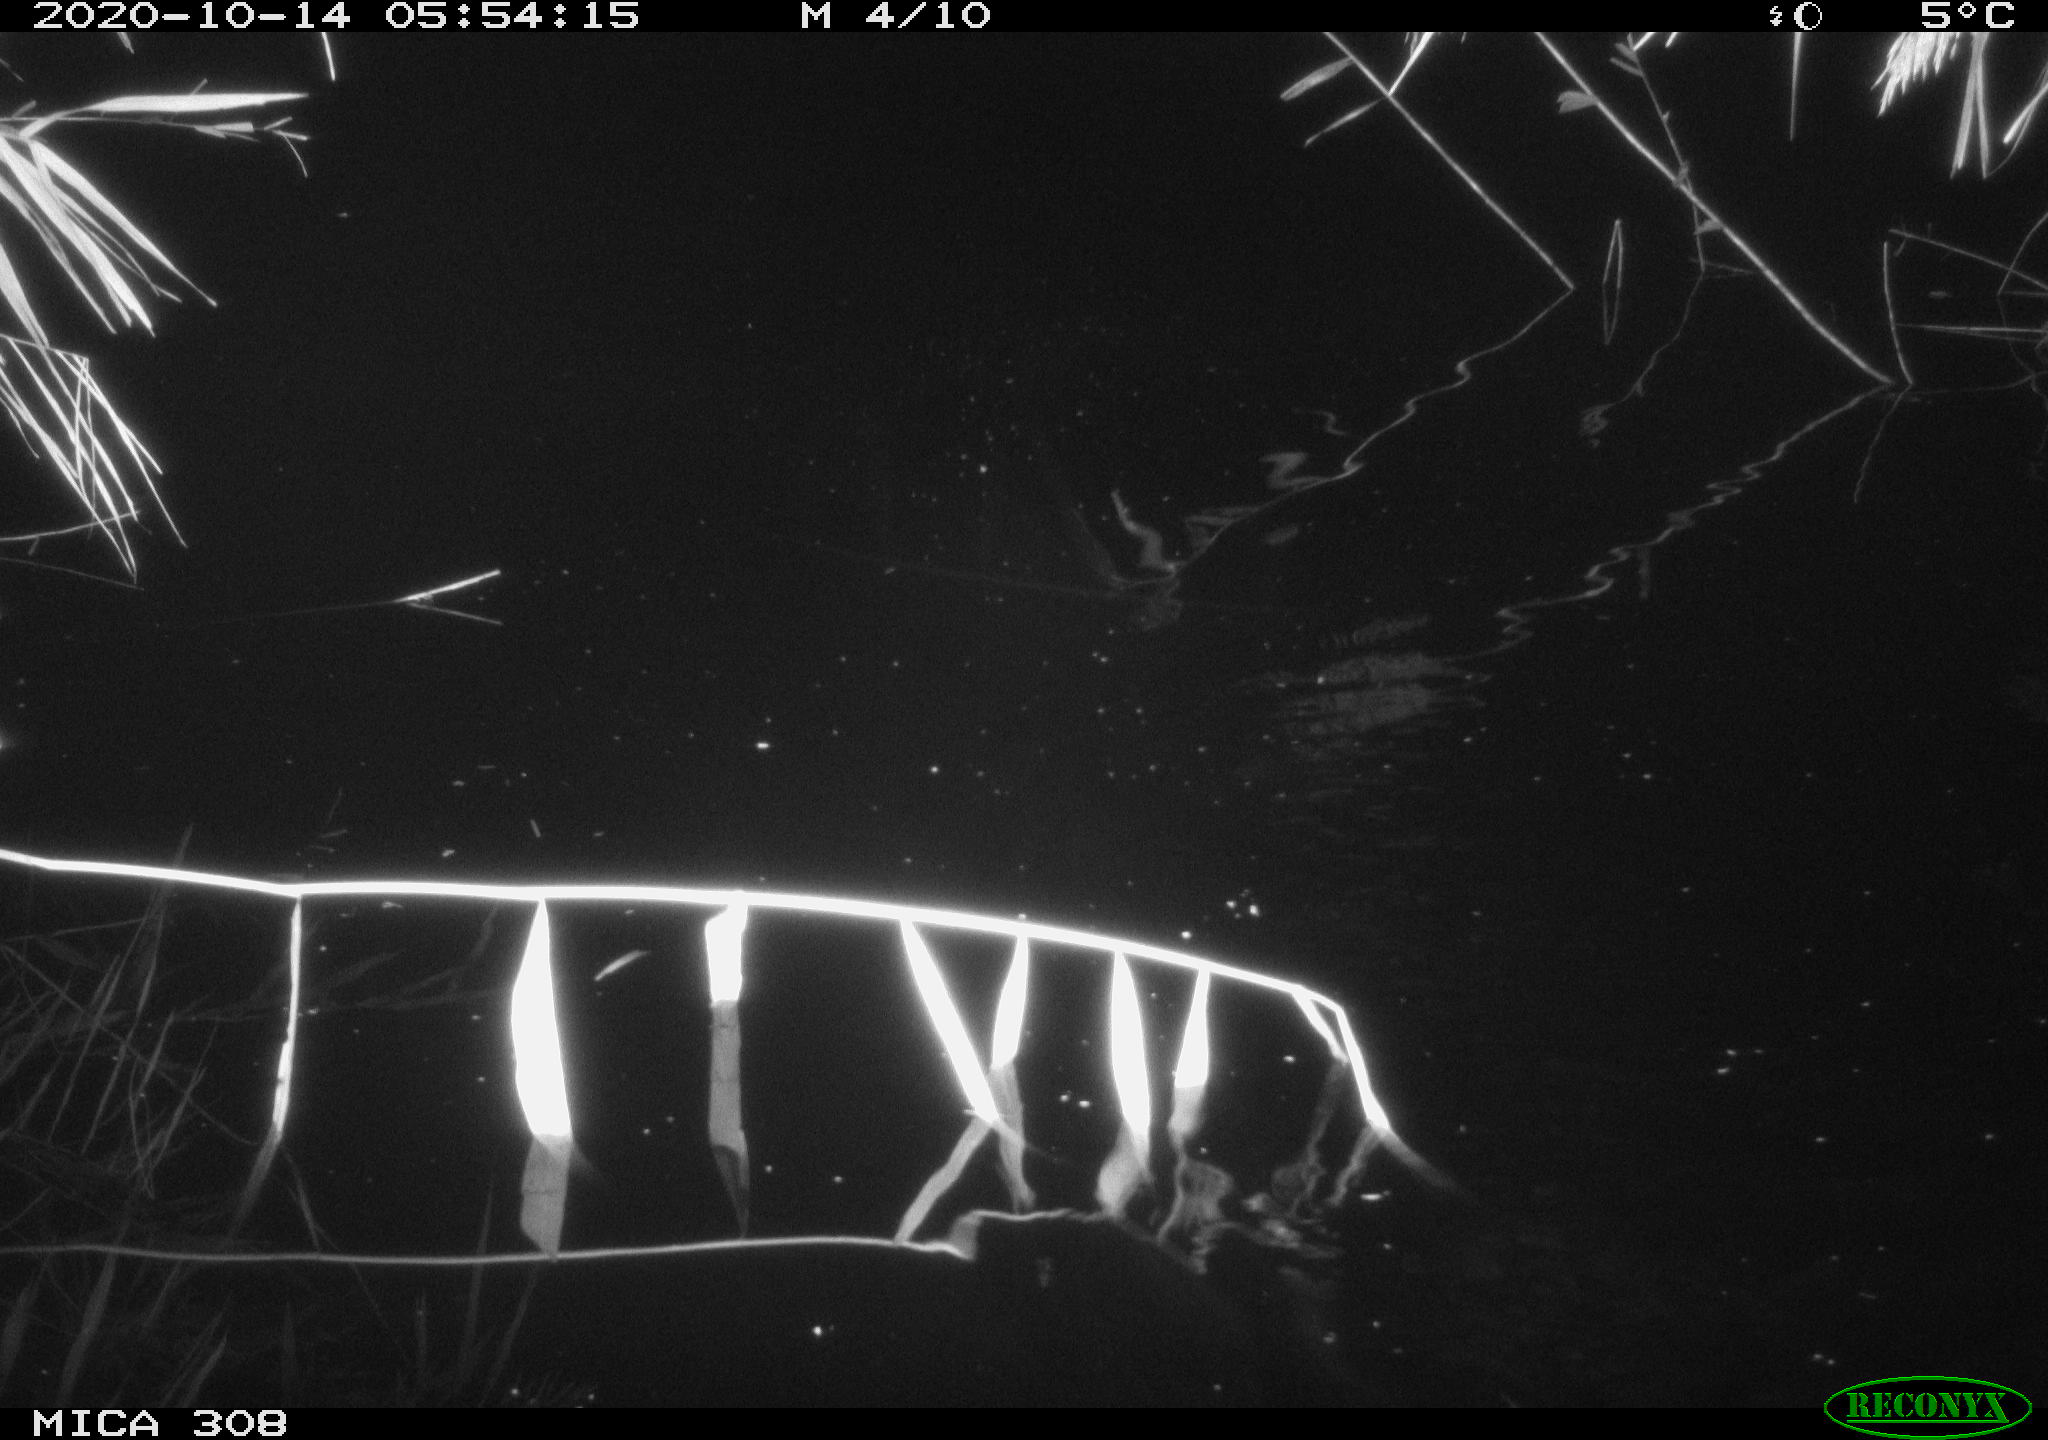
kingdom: Animalia
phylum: Chordata
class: Mammalia
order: Rodentia
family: Cricetidae
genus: Ondatra
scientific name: Ondatra zibethicus
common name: Muskrat
